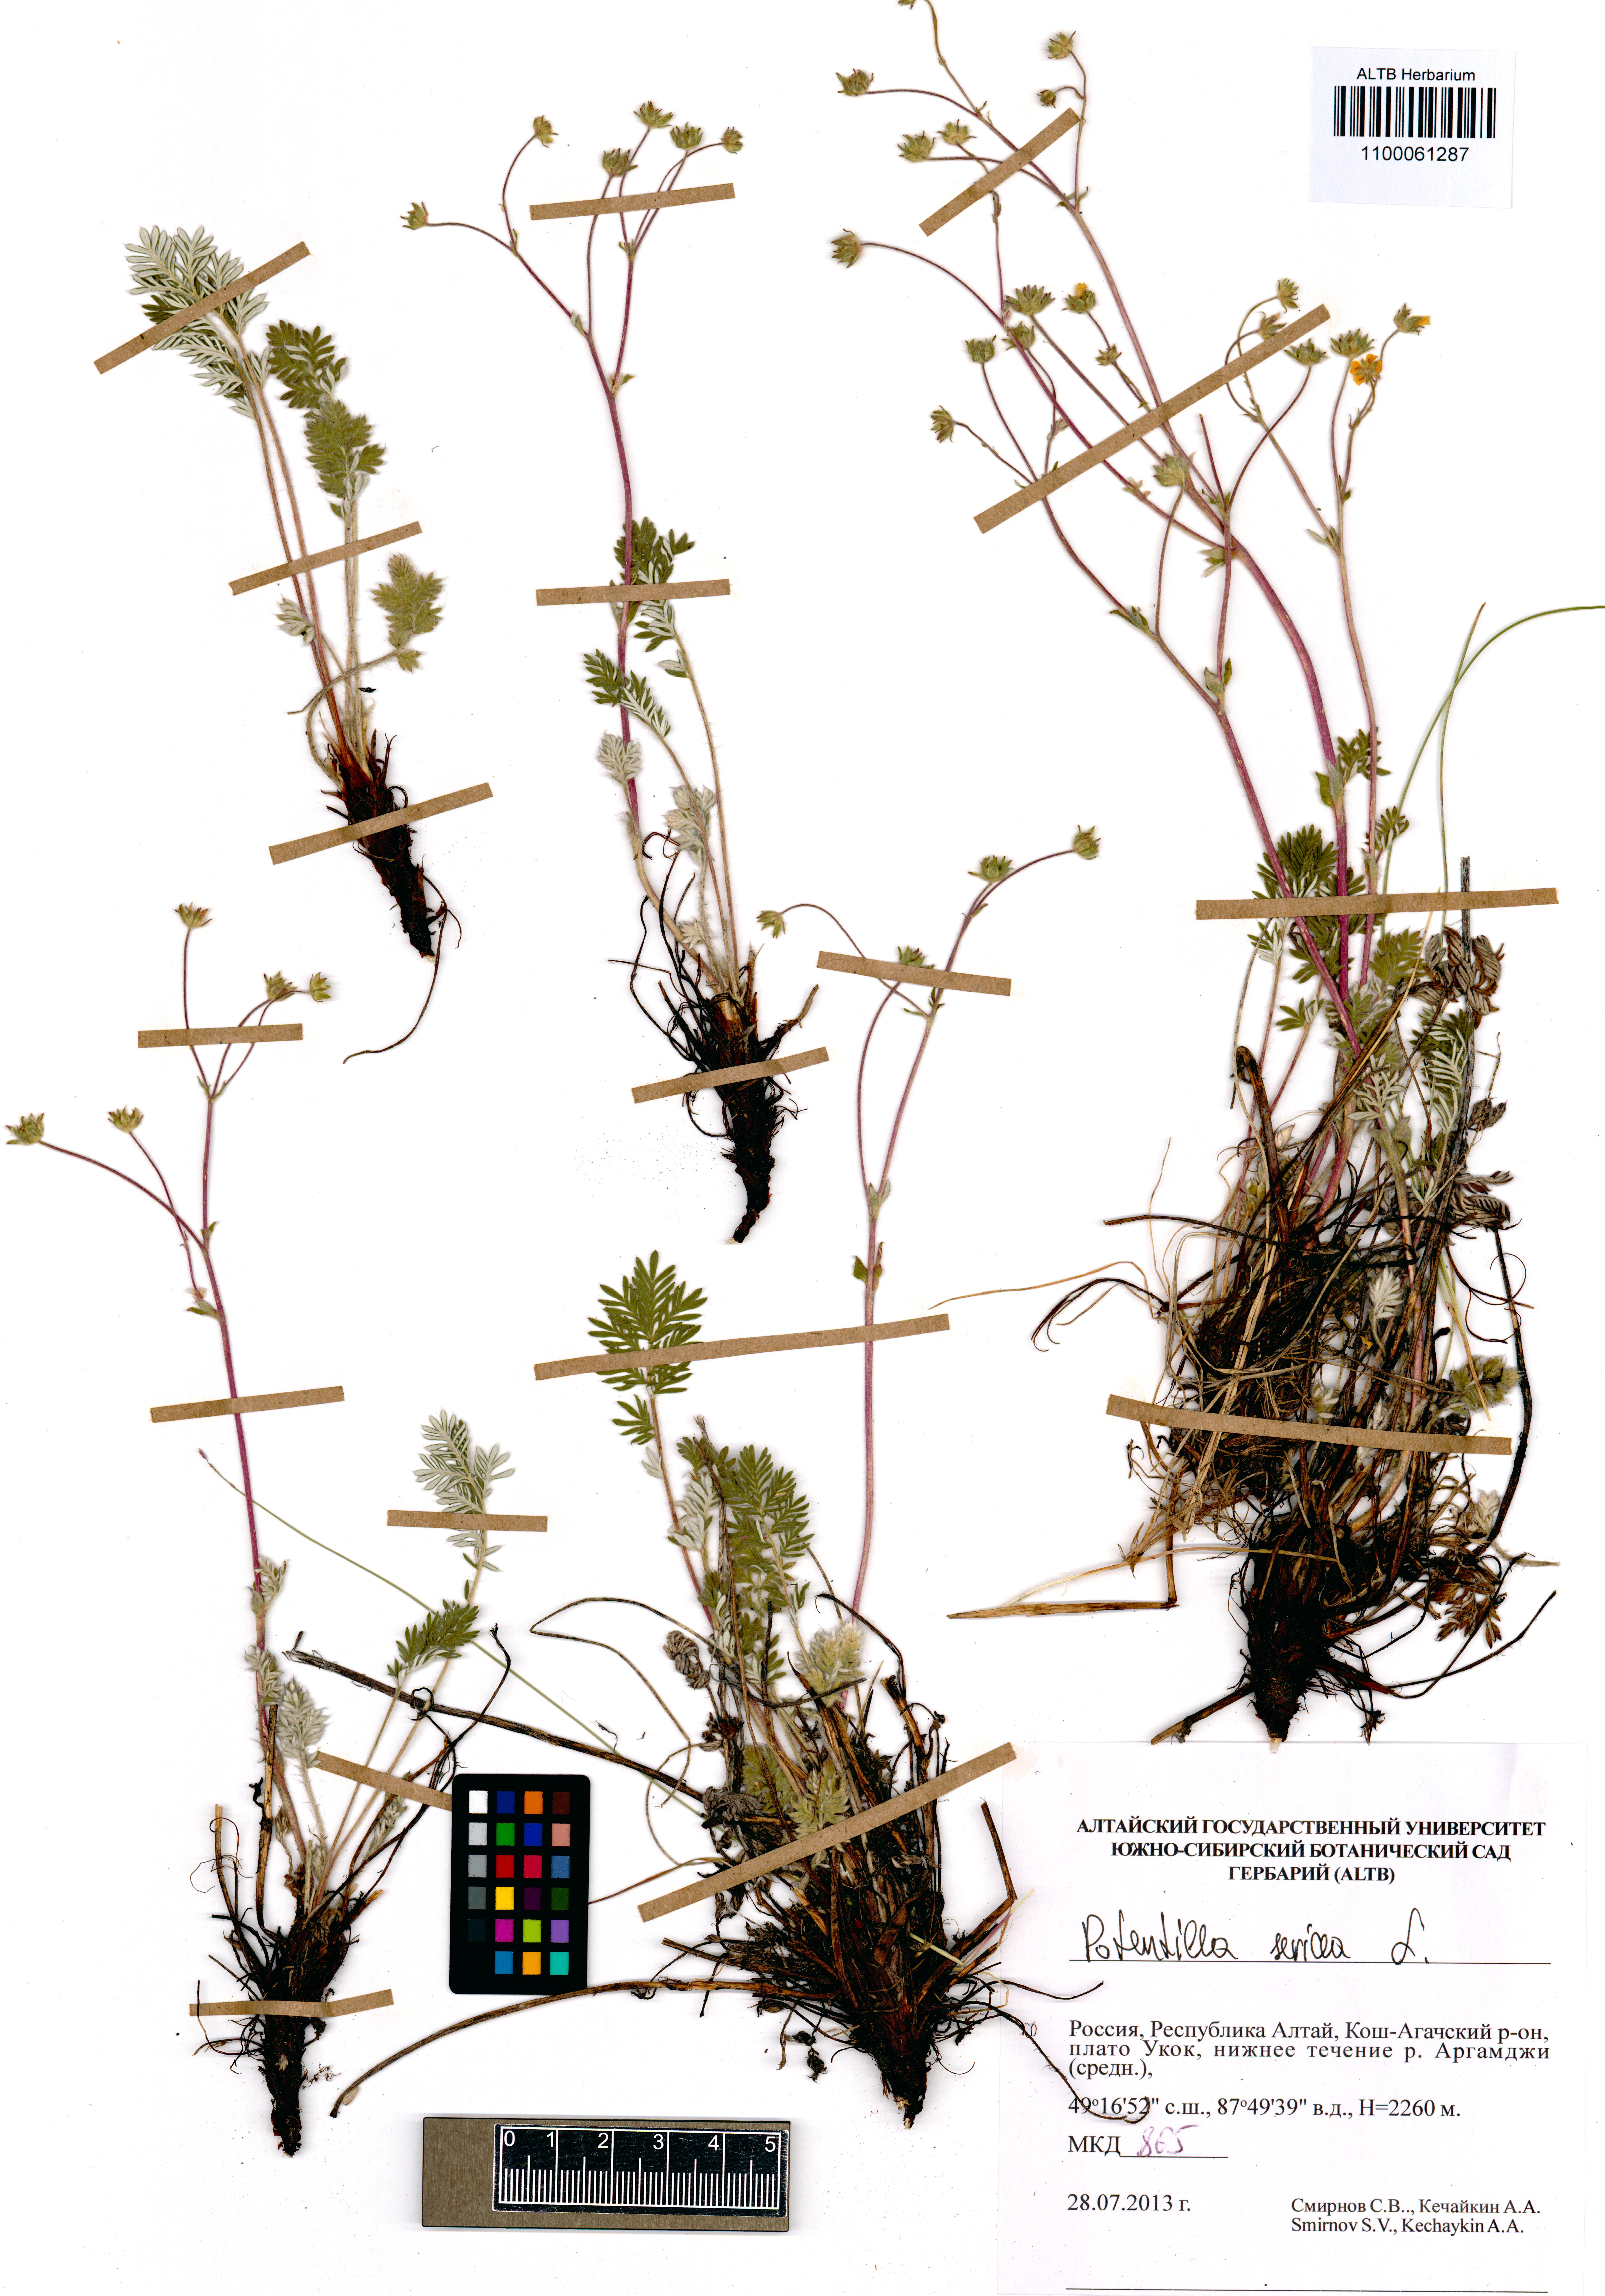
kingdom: Plantae
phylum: Tracheophyta
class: Magnoliopsida
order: Rosales
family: Rosaceae
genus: Potentilla
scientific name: Potentilla sericea
